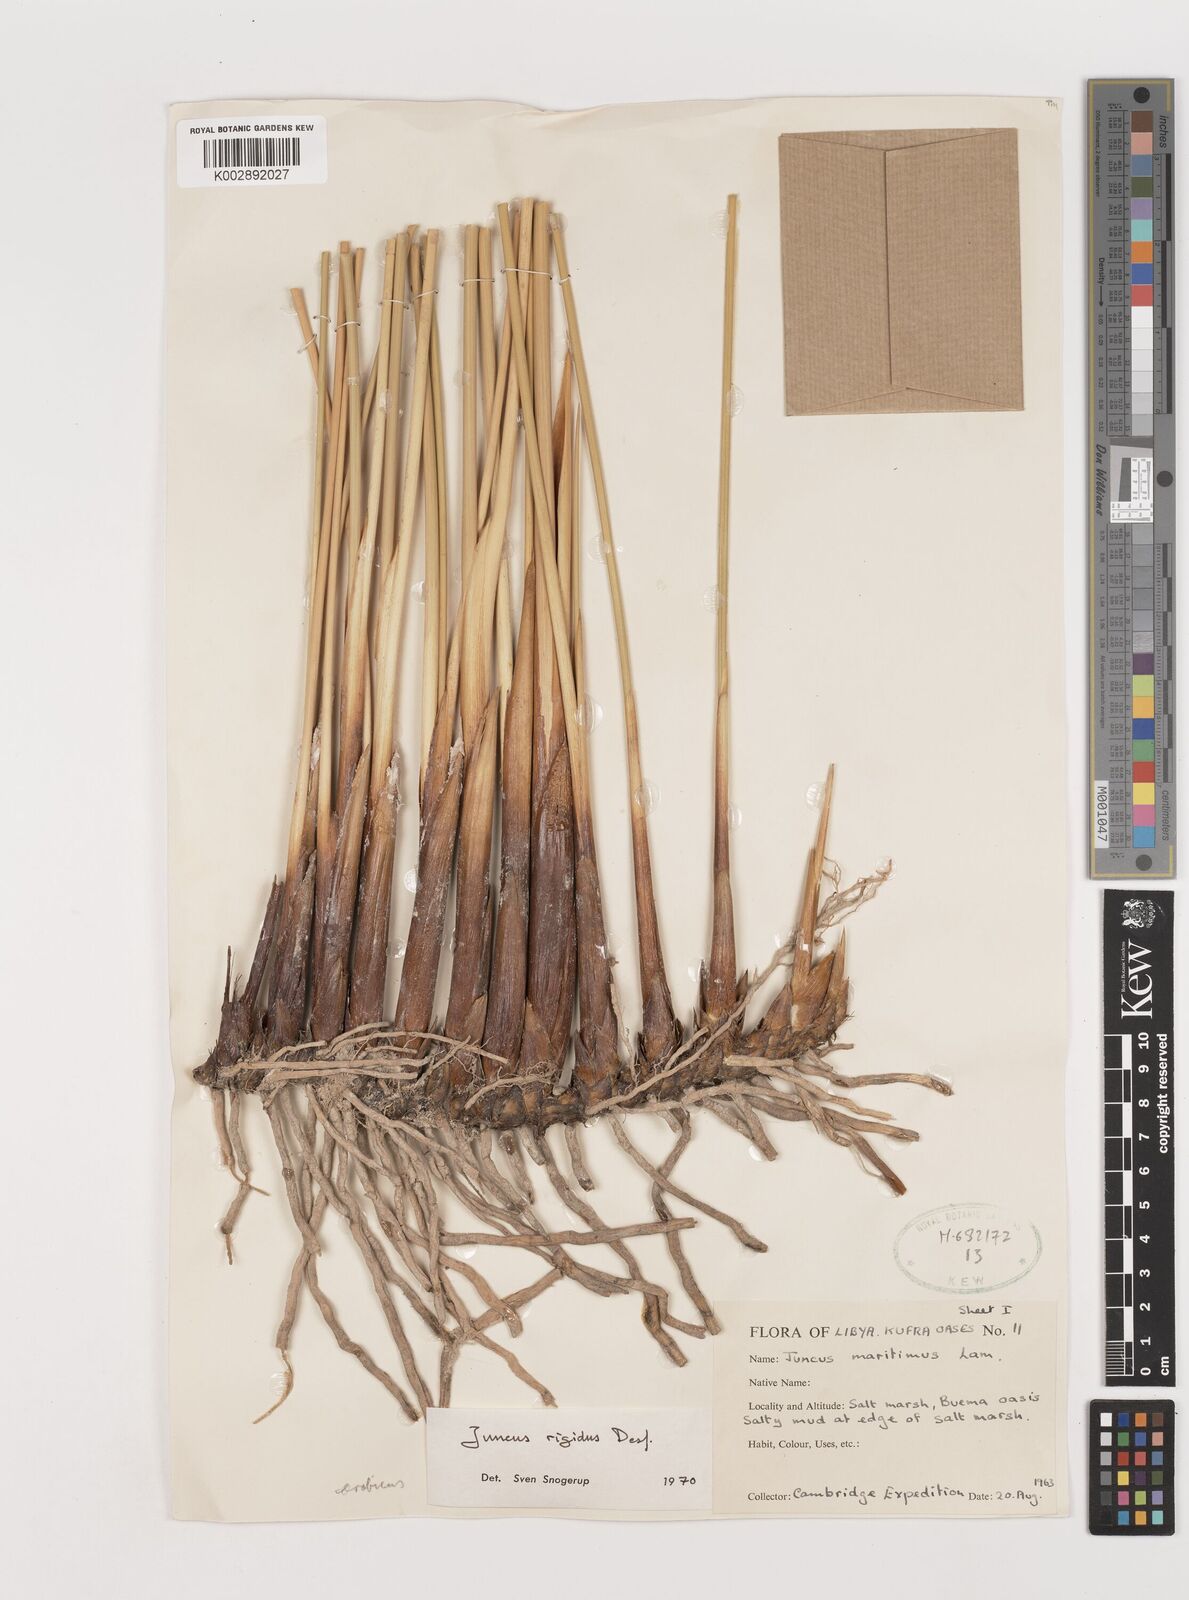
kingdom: Plantae
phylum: Tracheophyta
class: Liliopsida
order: Poales
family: Juncaceae
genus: Juncus
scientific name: Juncus rigidus
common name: Hard sea rush
